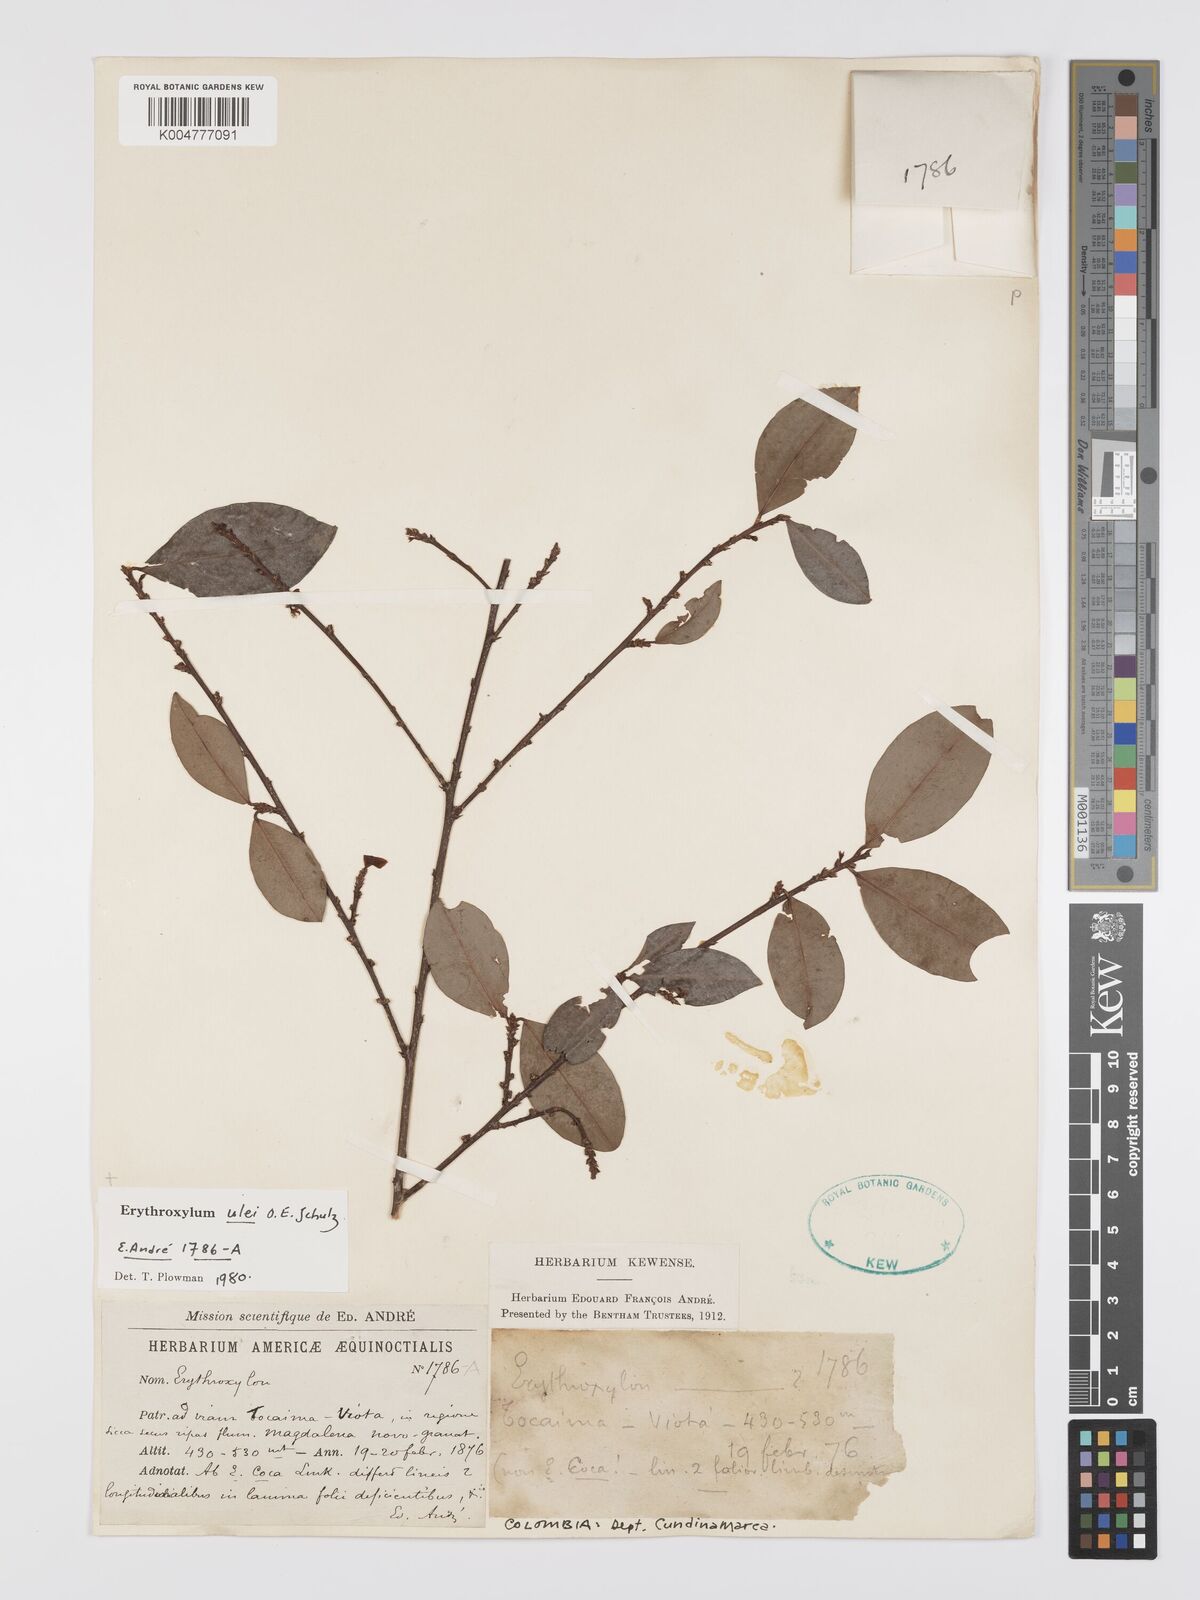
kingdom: Plantae
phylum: Tracheophyta
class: Magnoliopsida
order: Malpighiales
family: Erythroxylaceae
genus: Erythroxylum
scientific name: Erythroxylum ulei
